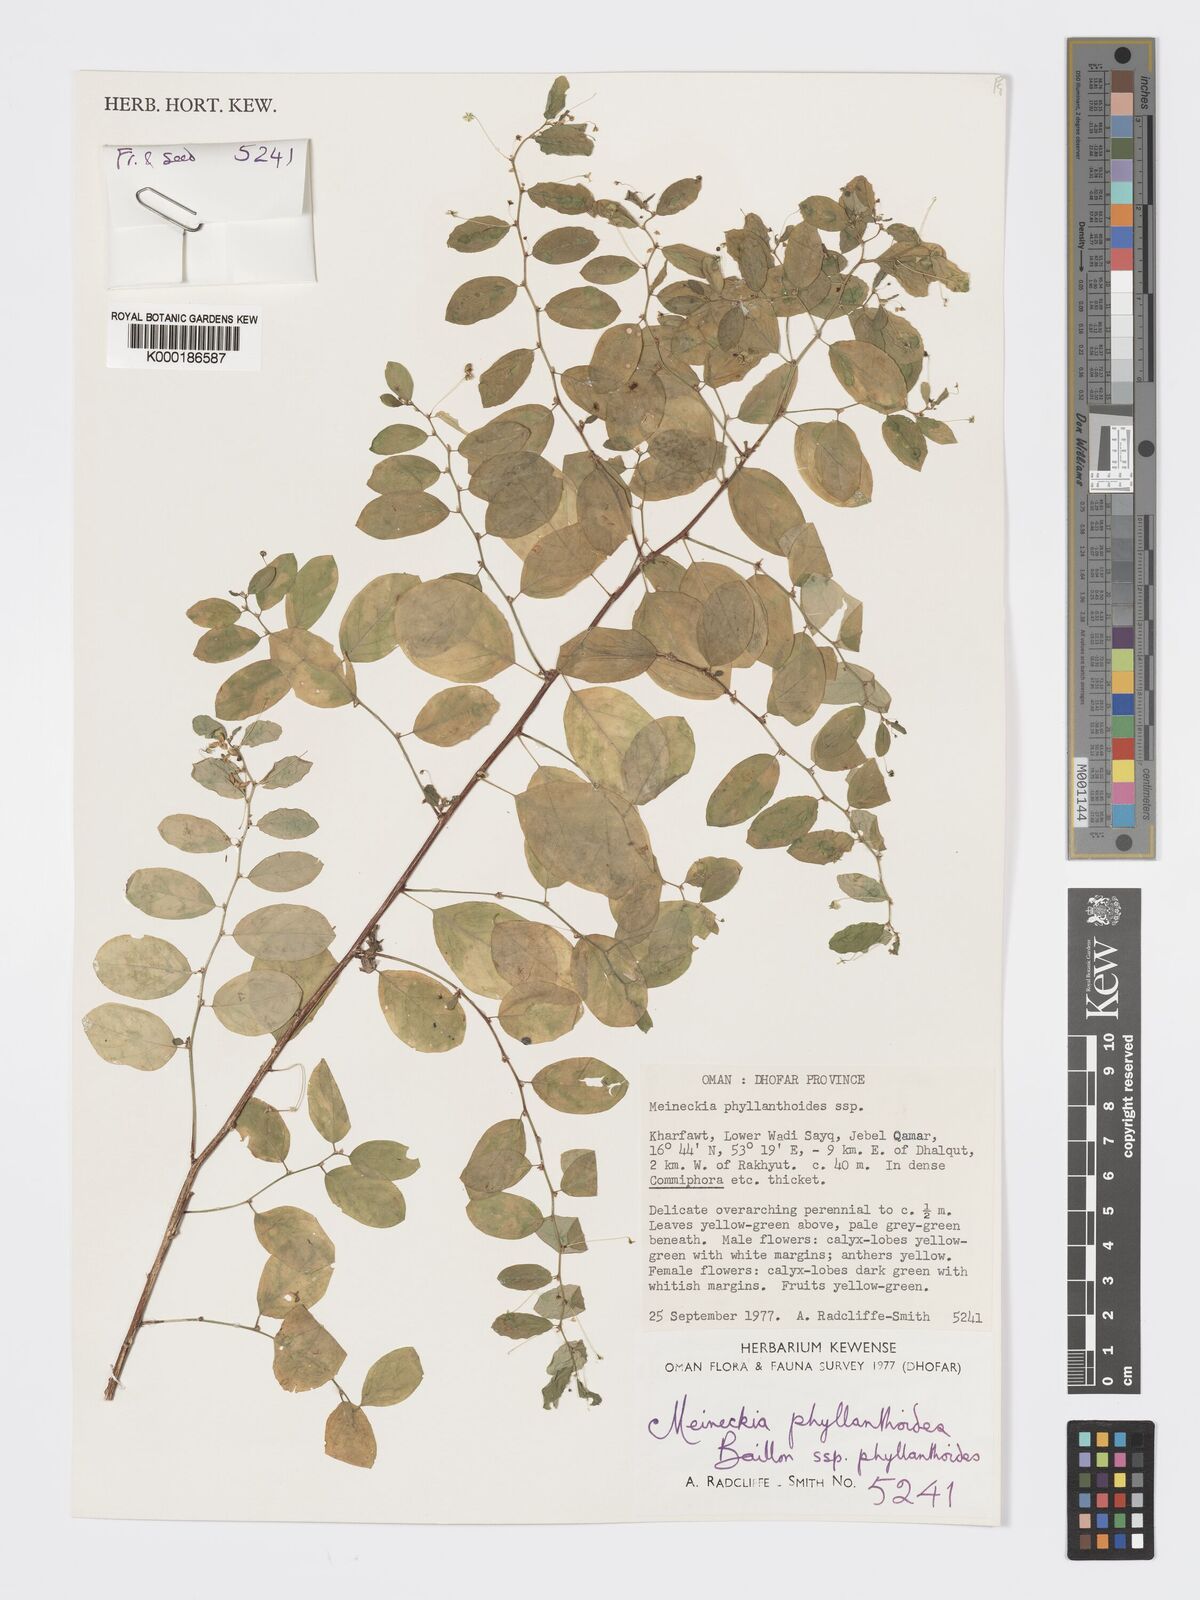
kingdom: Plantae
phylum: Tracheophyta
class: Magnoliopsida
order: Malpighiales
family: Phyllanthaceae
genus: Meineckia
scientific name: Meineckia phyllanthoides
